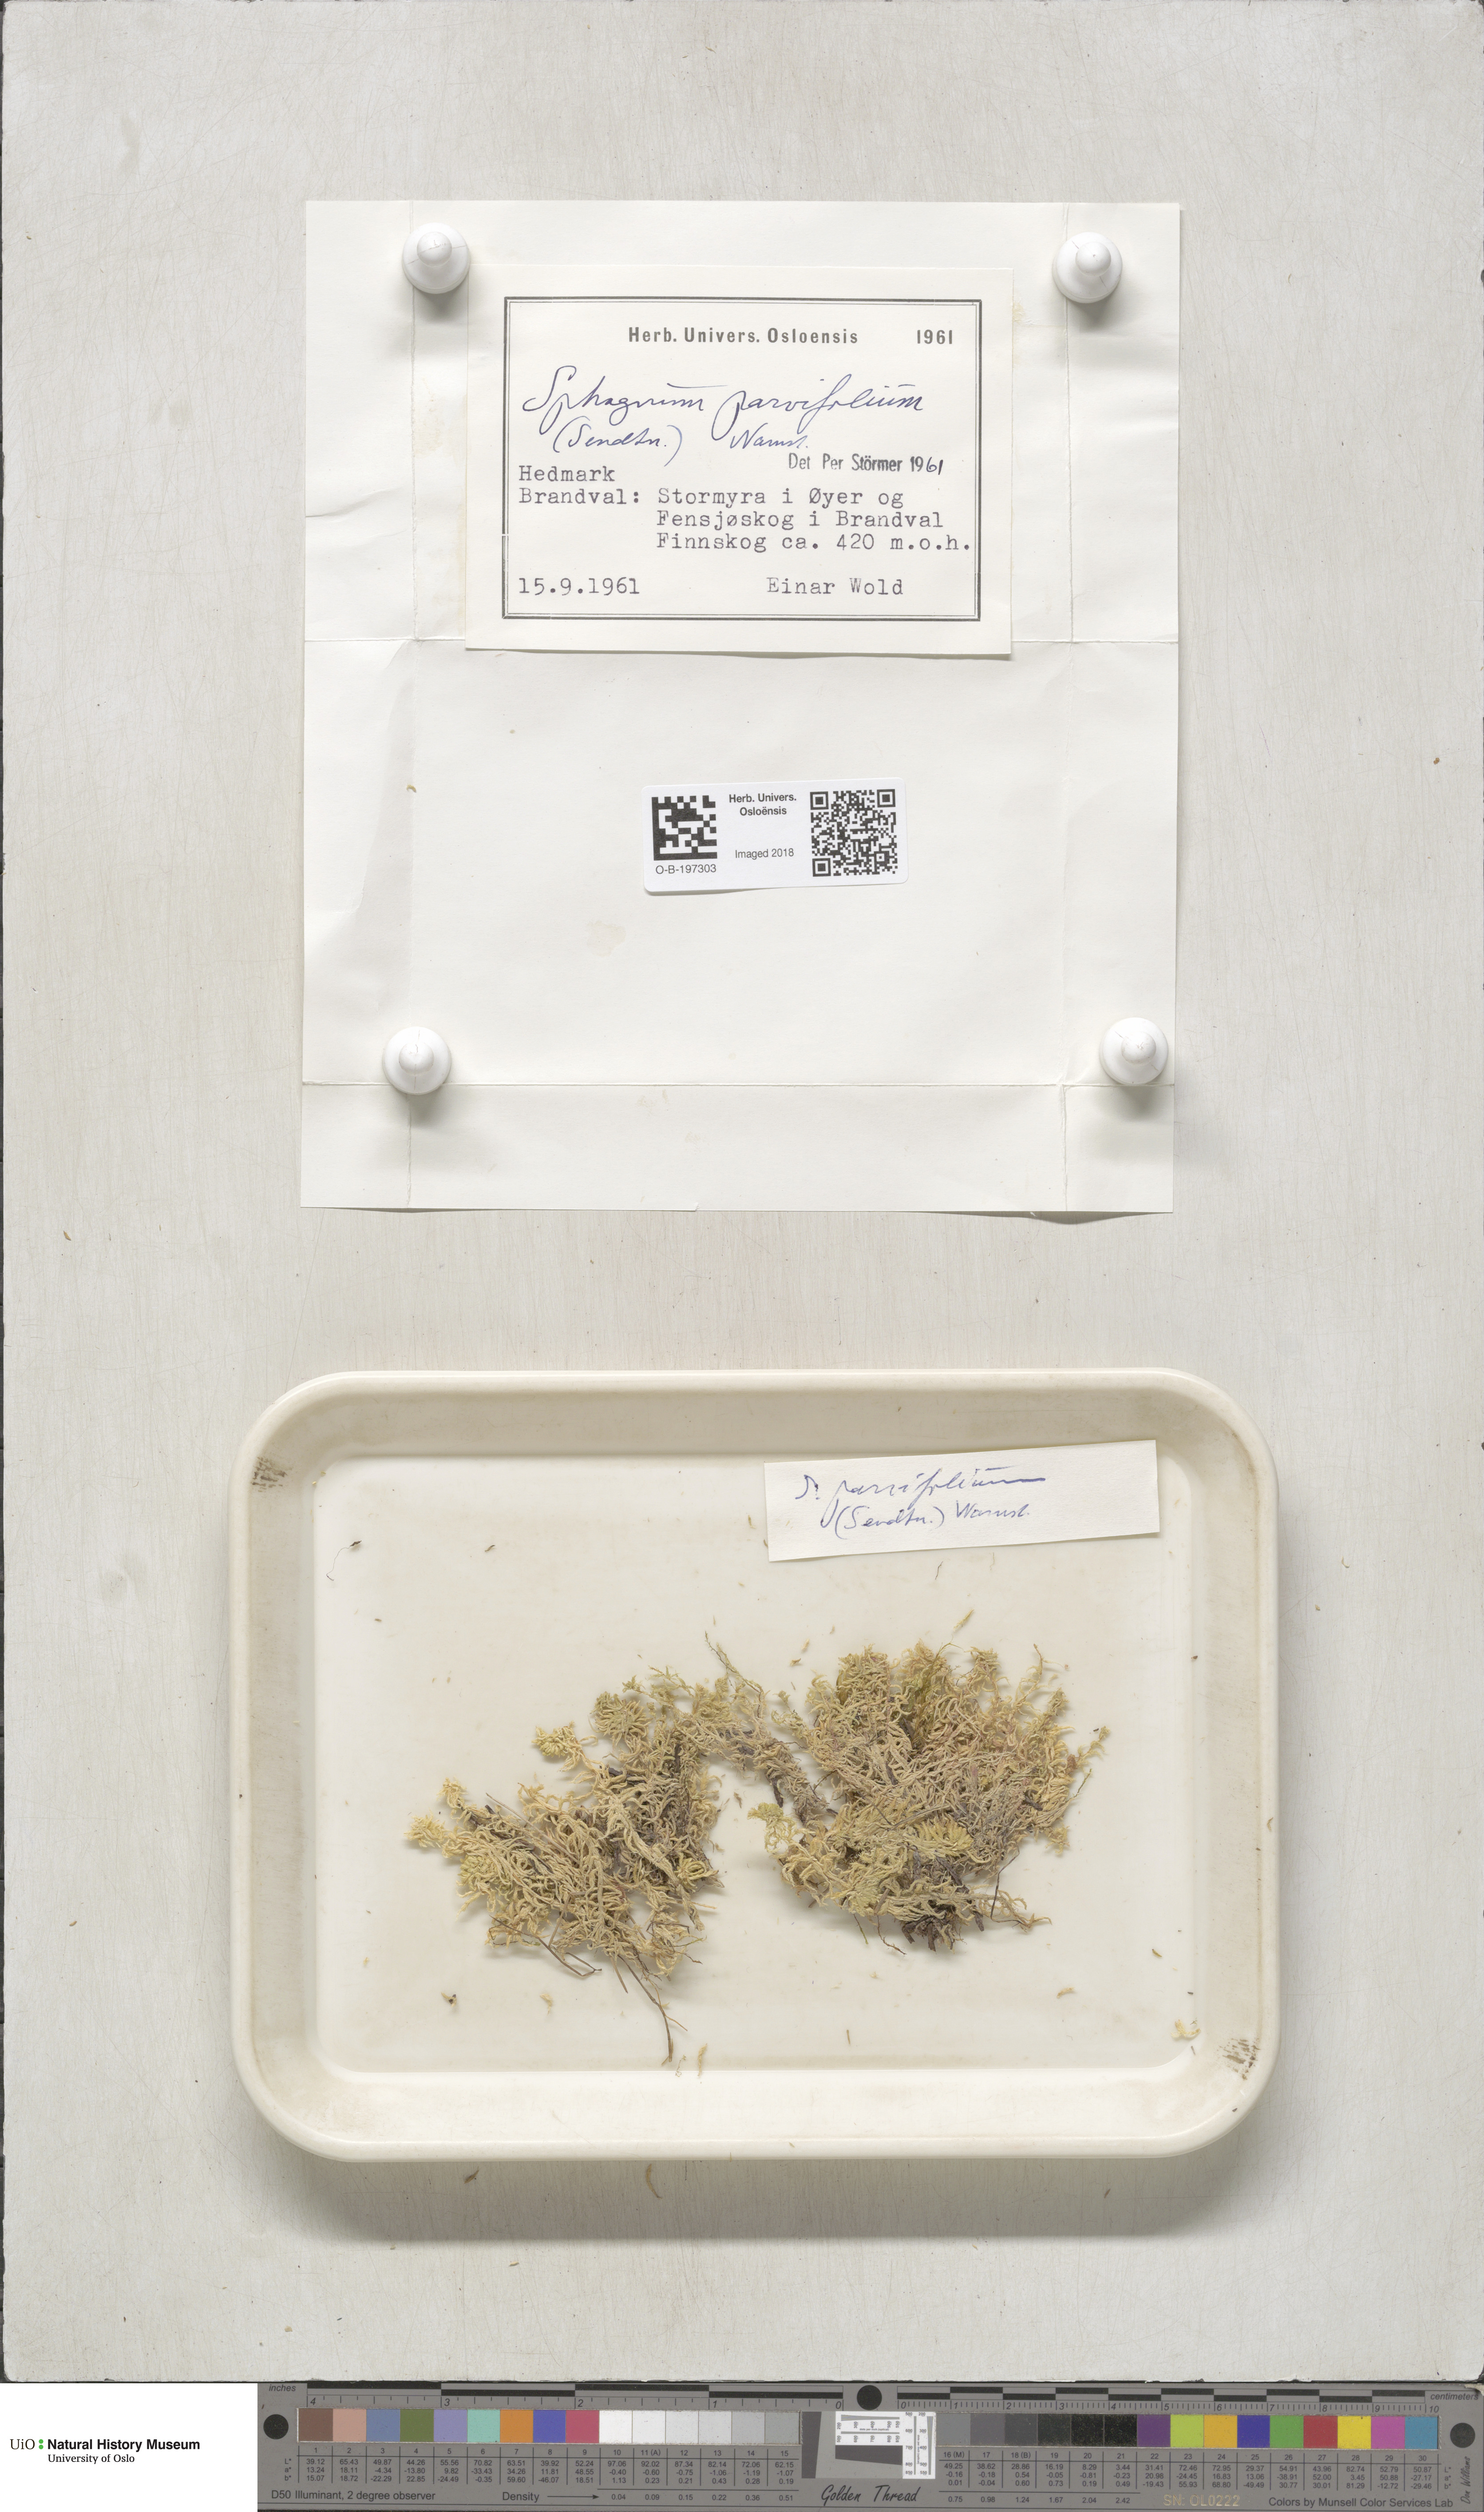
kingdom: Plantae
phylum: Bryophyta
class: Sphagnopsida
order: Sphagnales
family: Sphagnaceae
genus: Sphagnum
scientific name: Sphagnum angustifolium
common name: Narrow-leaved peat moss
